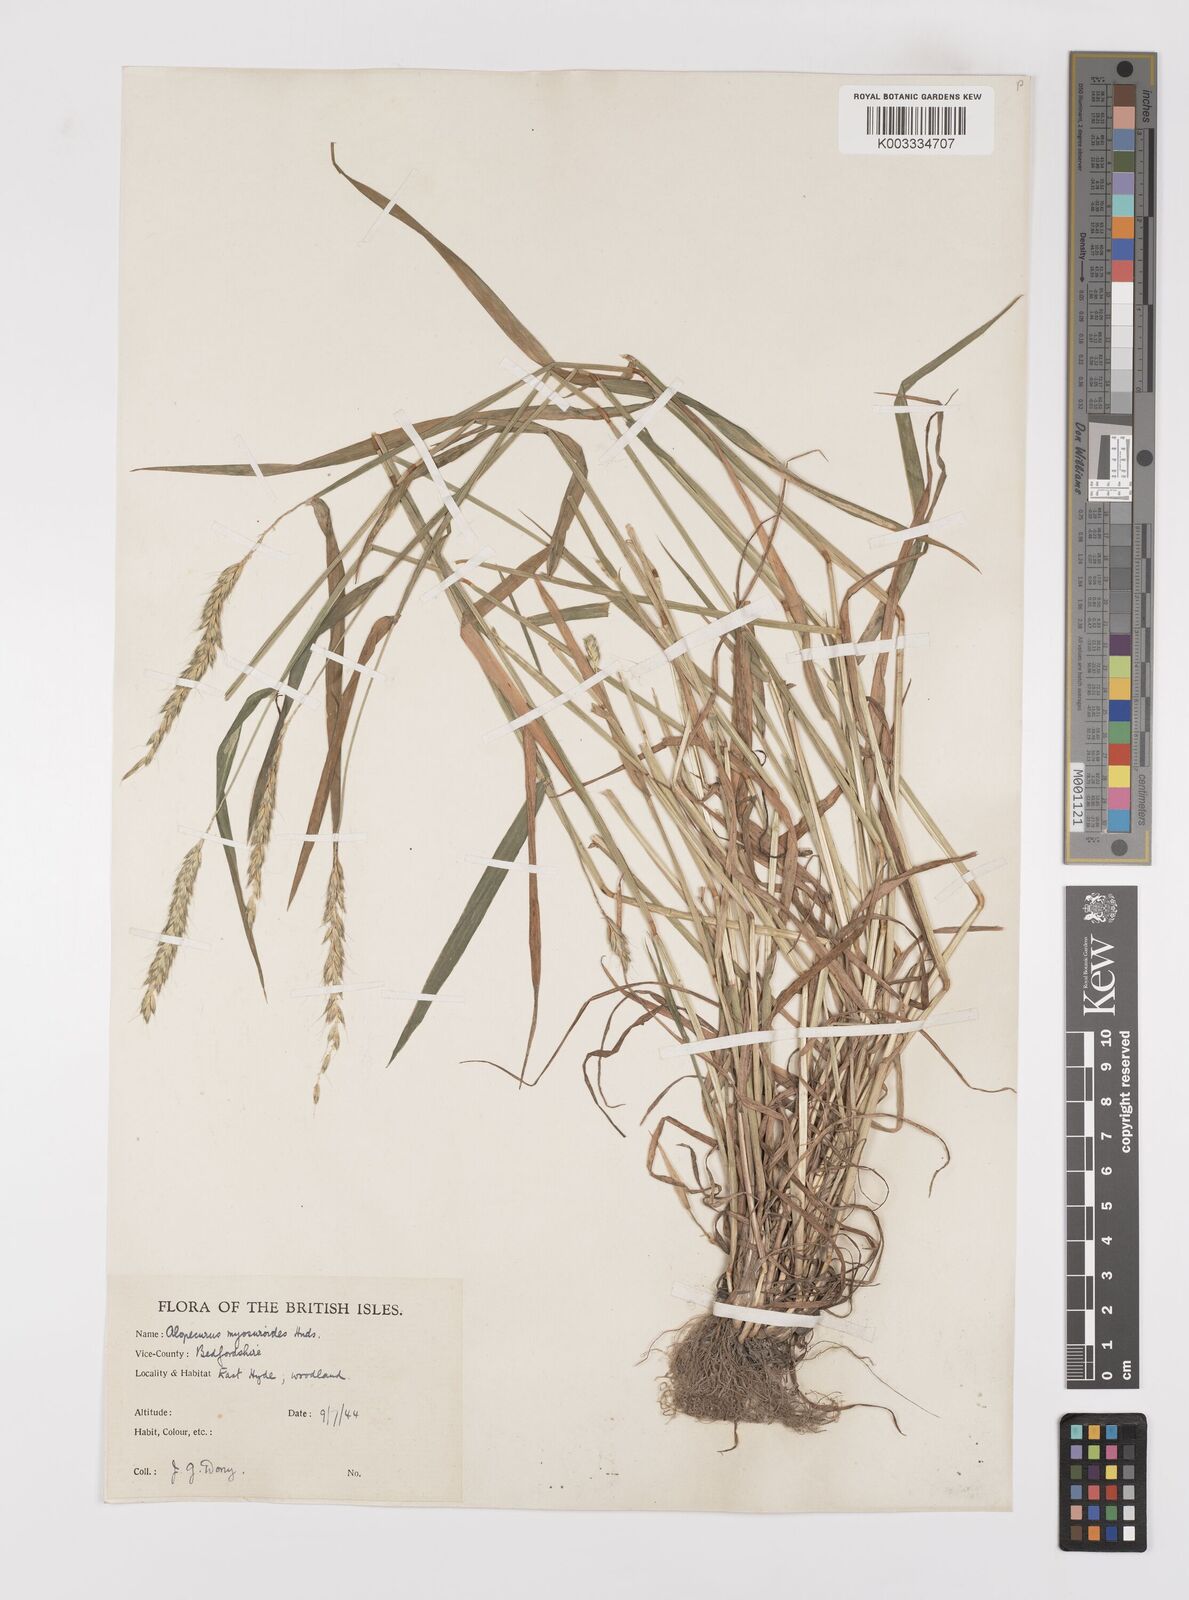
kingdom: Plantae
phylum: Tracheophyta
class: Liliopsida
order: Poales
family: Poaceae
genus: Alopecurus
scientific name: Alopecurus myosuroides
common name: Black-grass
